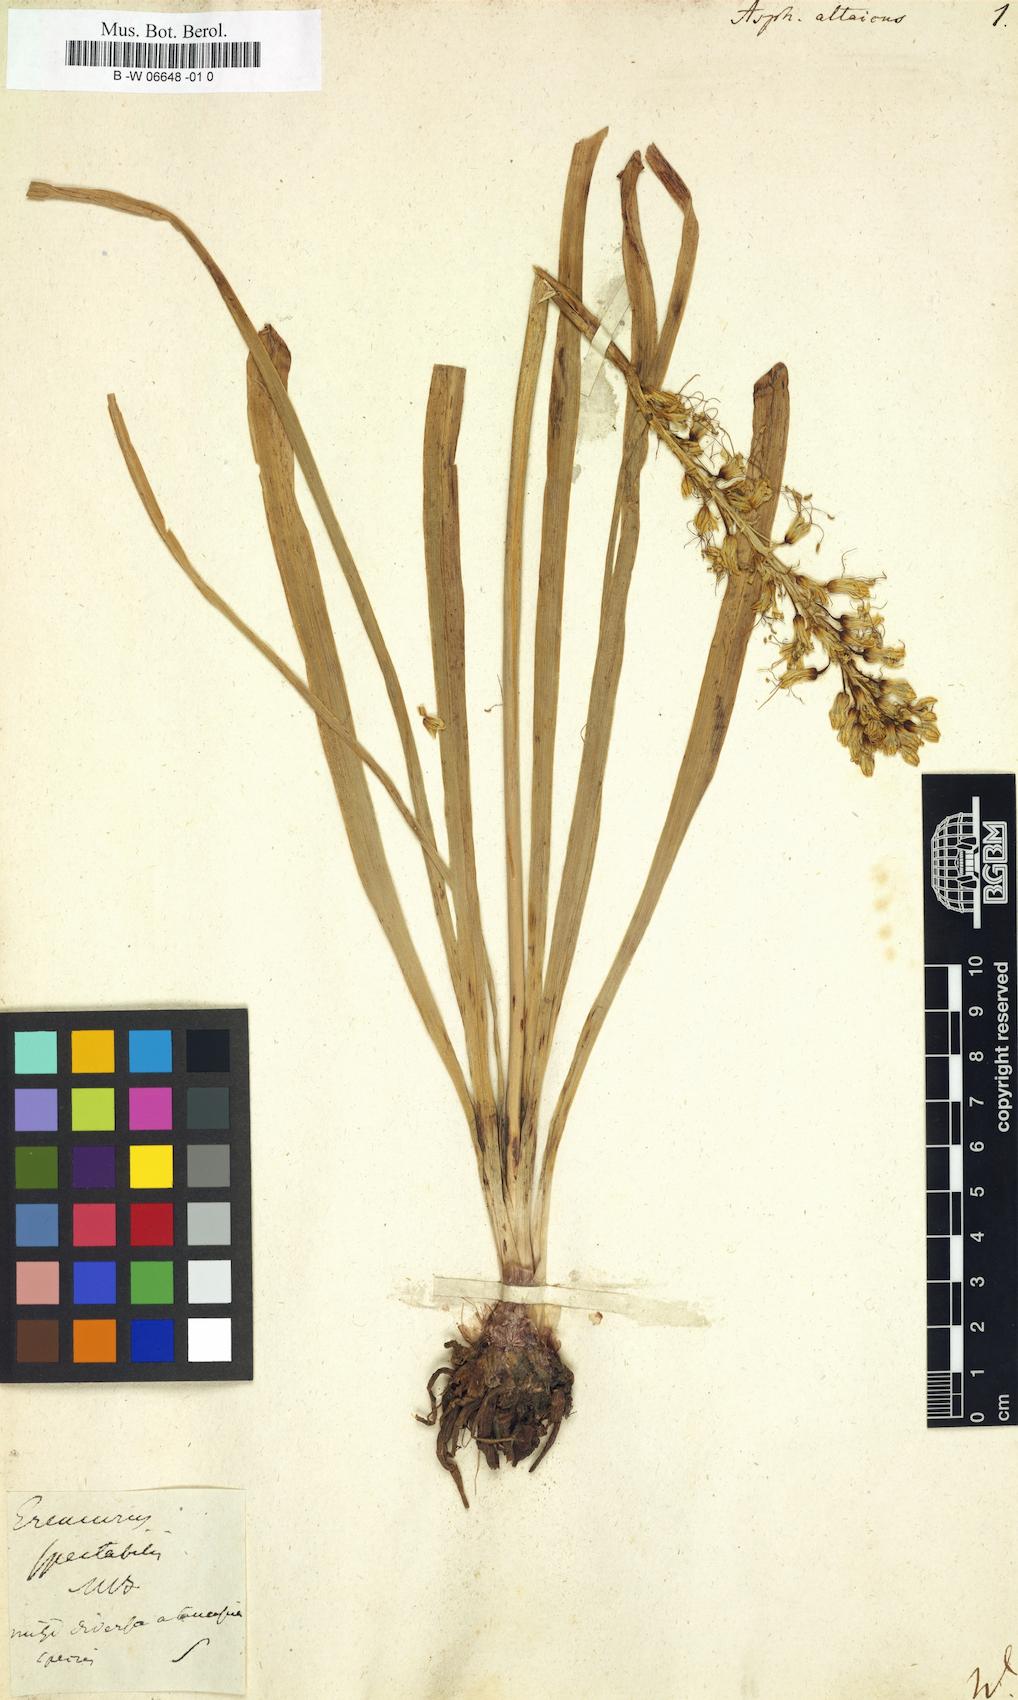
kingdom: Plantae
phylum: Tracheophyta
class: Liliopsida
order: Asparagales
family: Asphodelaceae
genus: Eremurus
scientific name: Eremurus altaicus
